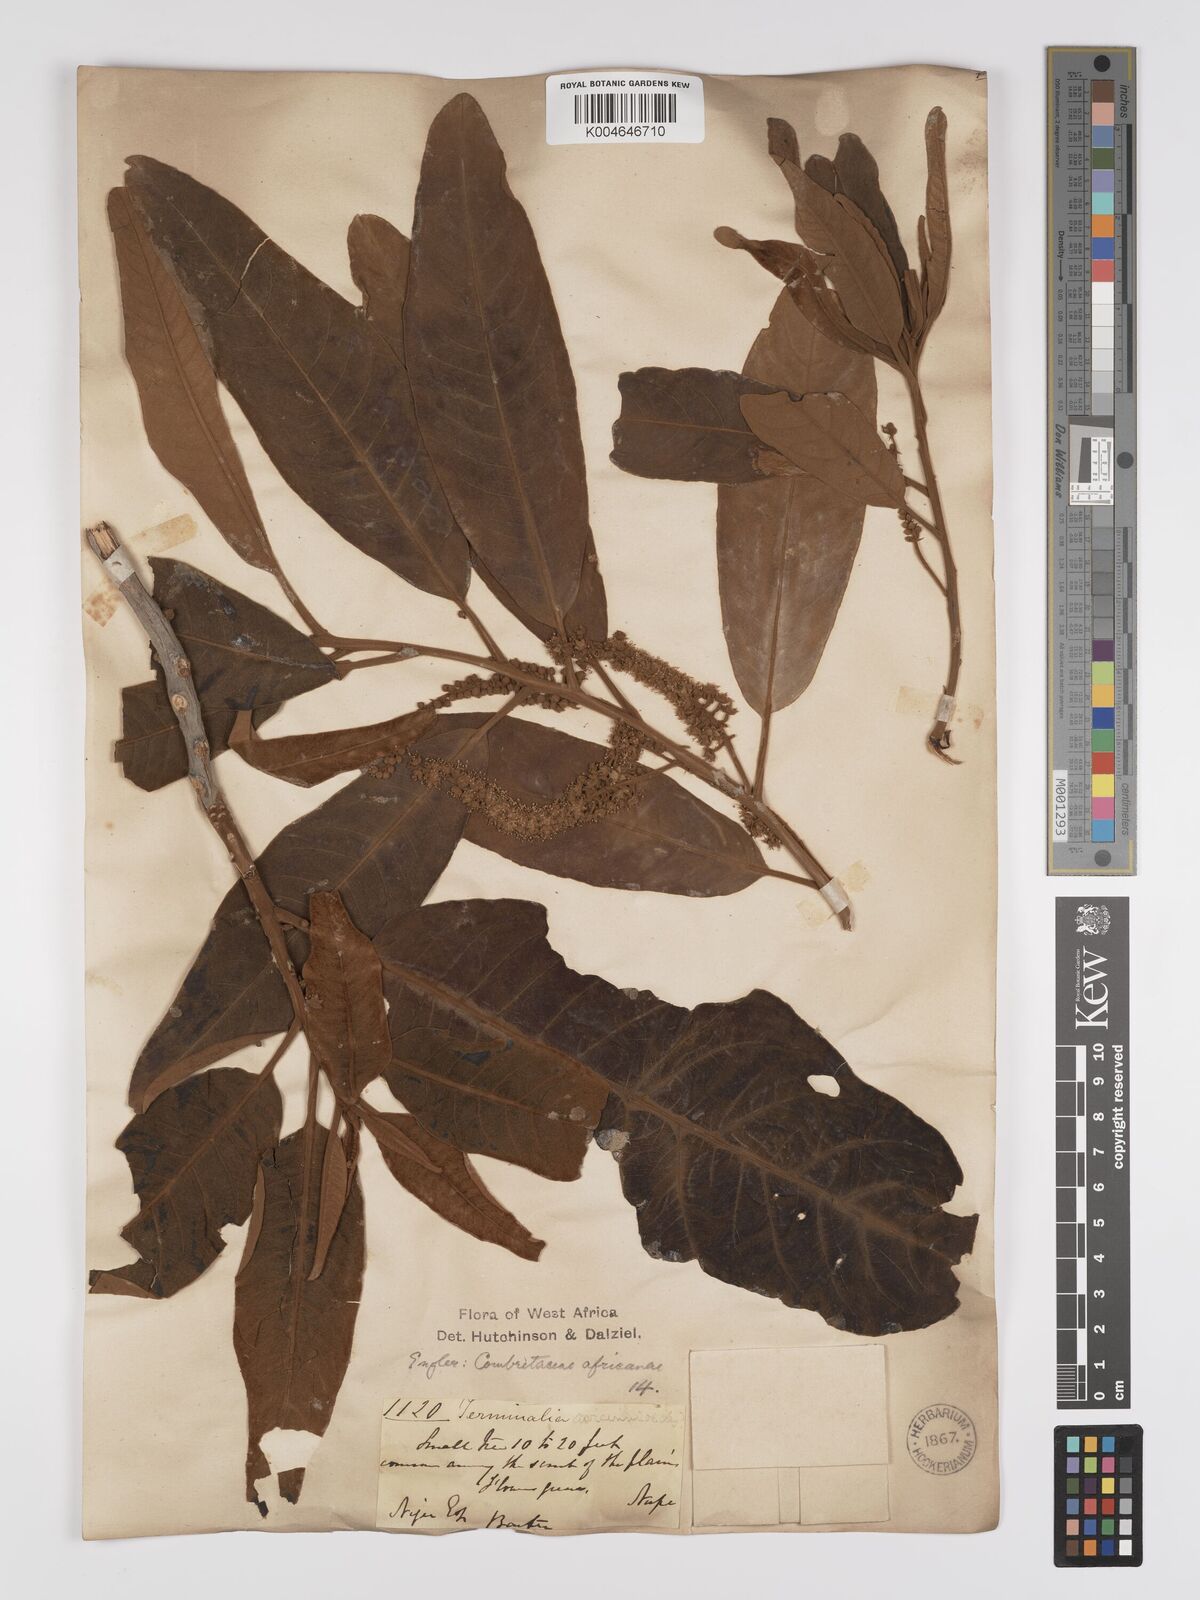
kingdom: Plantae
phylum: Tracheophyta
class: Magnoliopsida
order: Myrtales
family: Combretaceae
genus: Terminalia
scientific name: Terminalia avicennioides
